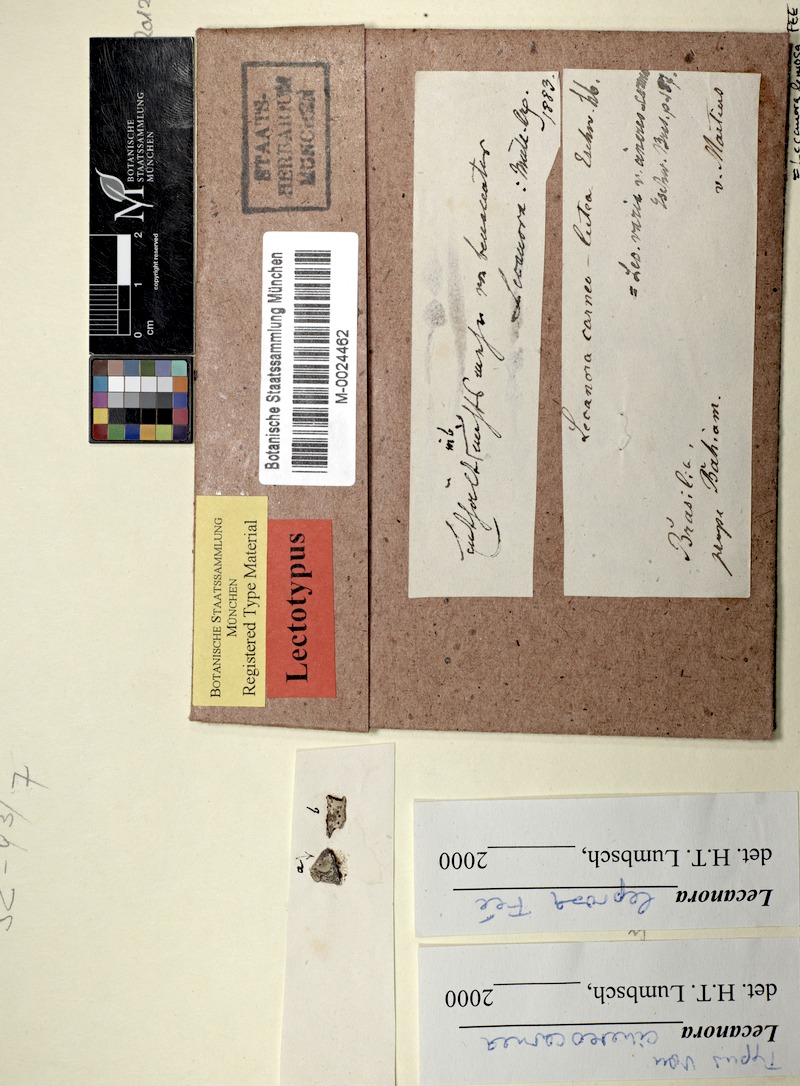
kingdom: Fungi
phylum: Ascomycota
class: Lecanoromycetes
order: Lecanorales
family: Lecanoraceae
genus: Lecanora
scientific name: Lecanora leprosa
